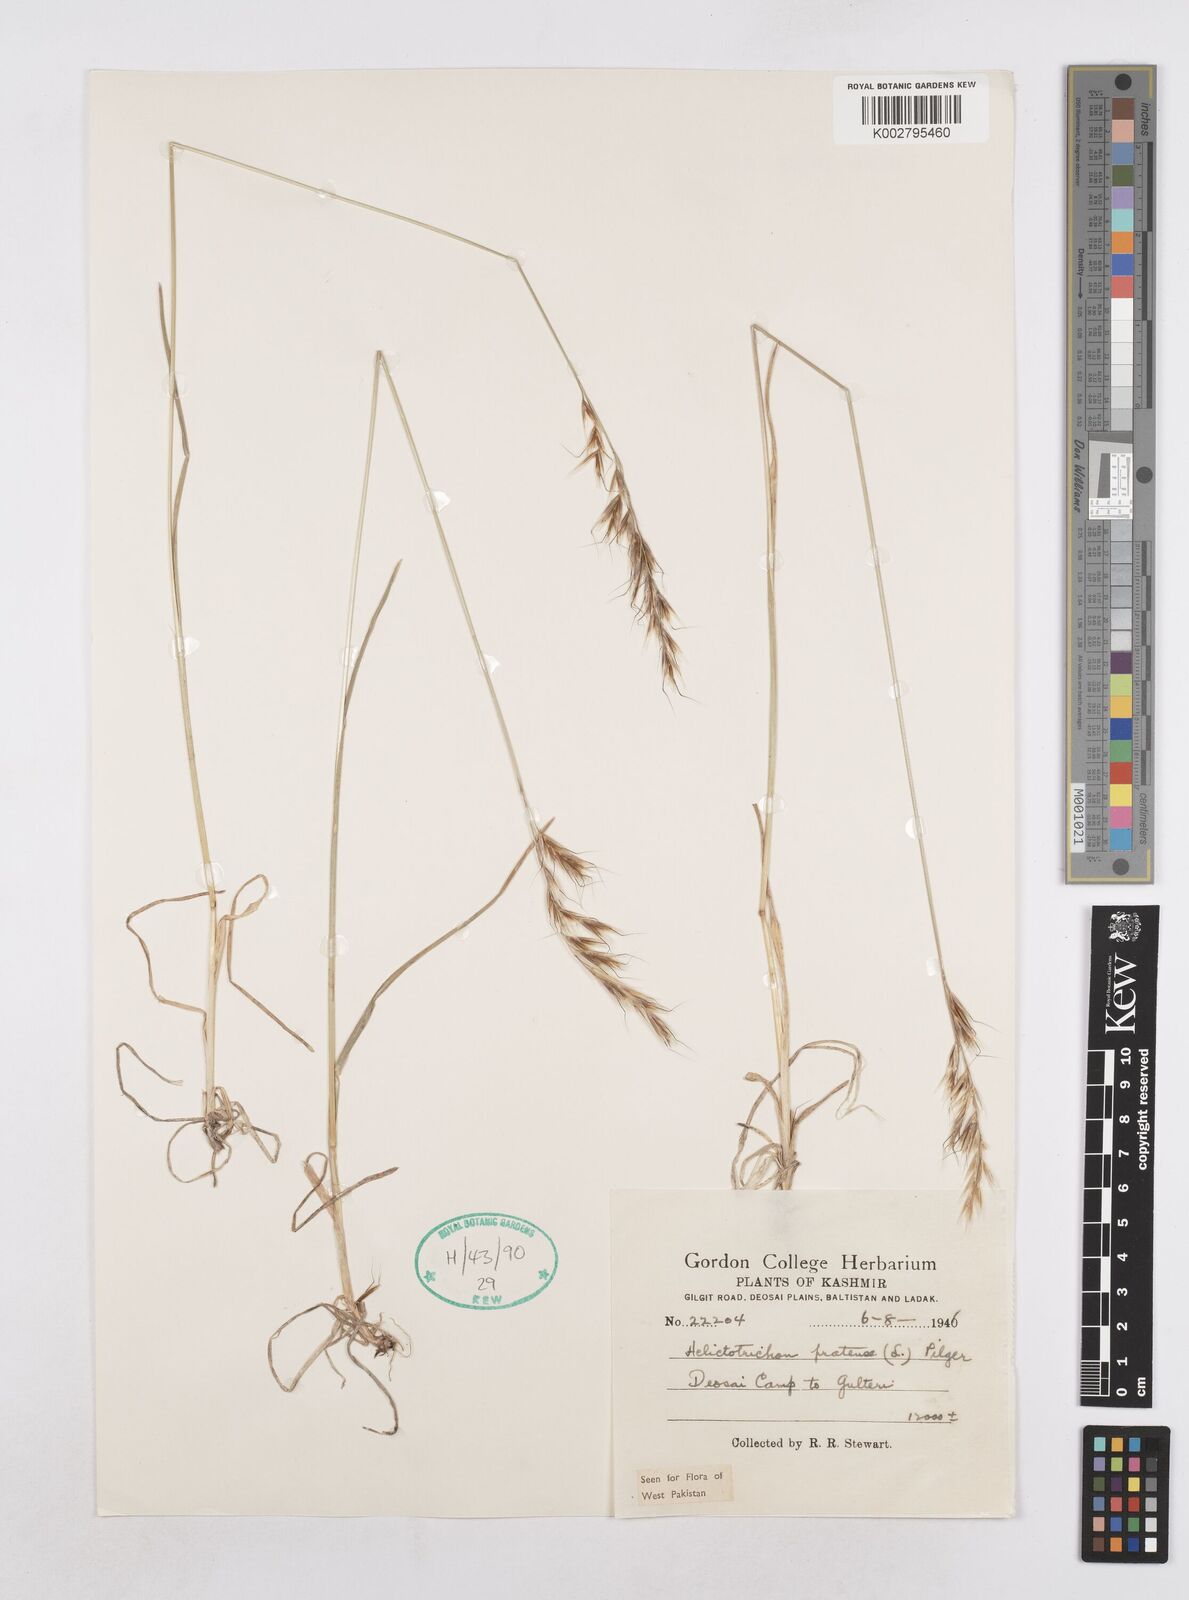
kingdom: Plantae
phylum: Tracheophyta
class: Liliopsida
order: Poales
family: Poaceae
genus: Helictochloa
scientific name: Helictochloa pratensis
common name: Meadow oat grass
